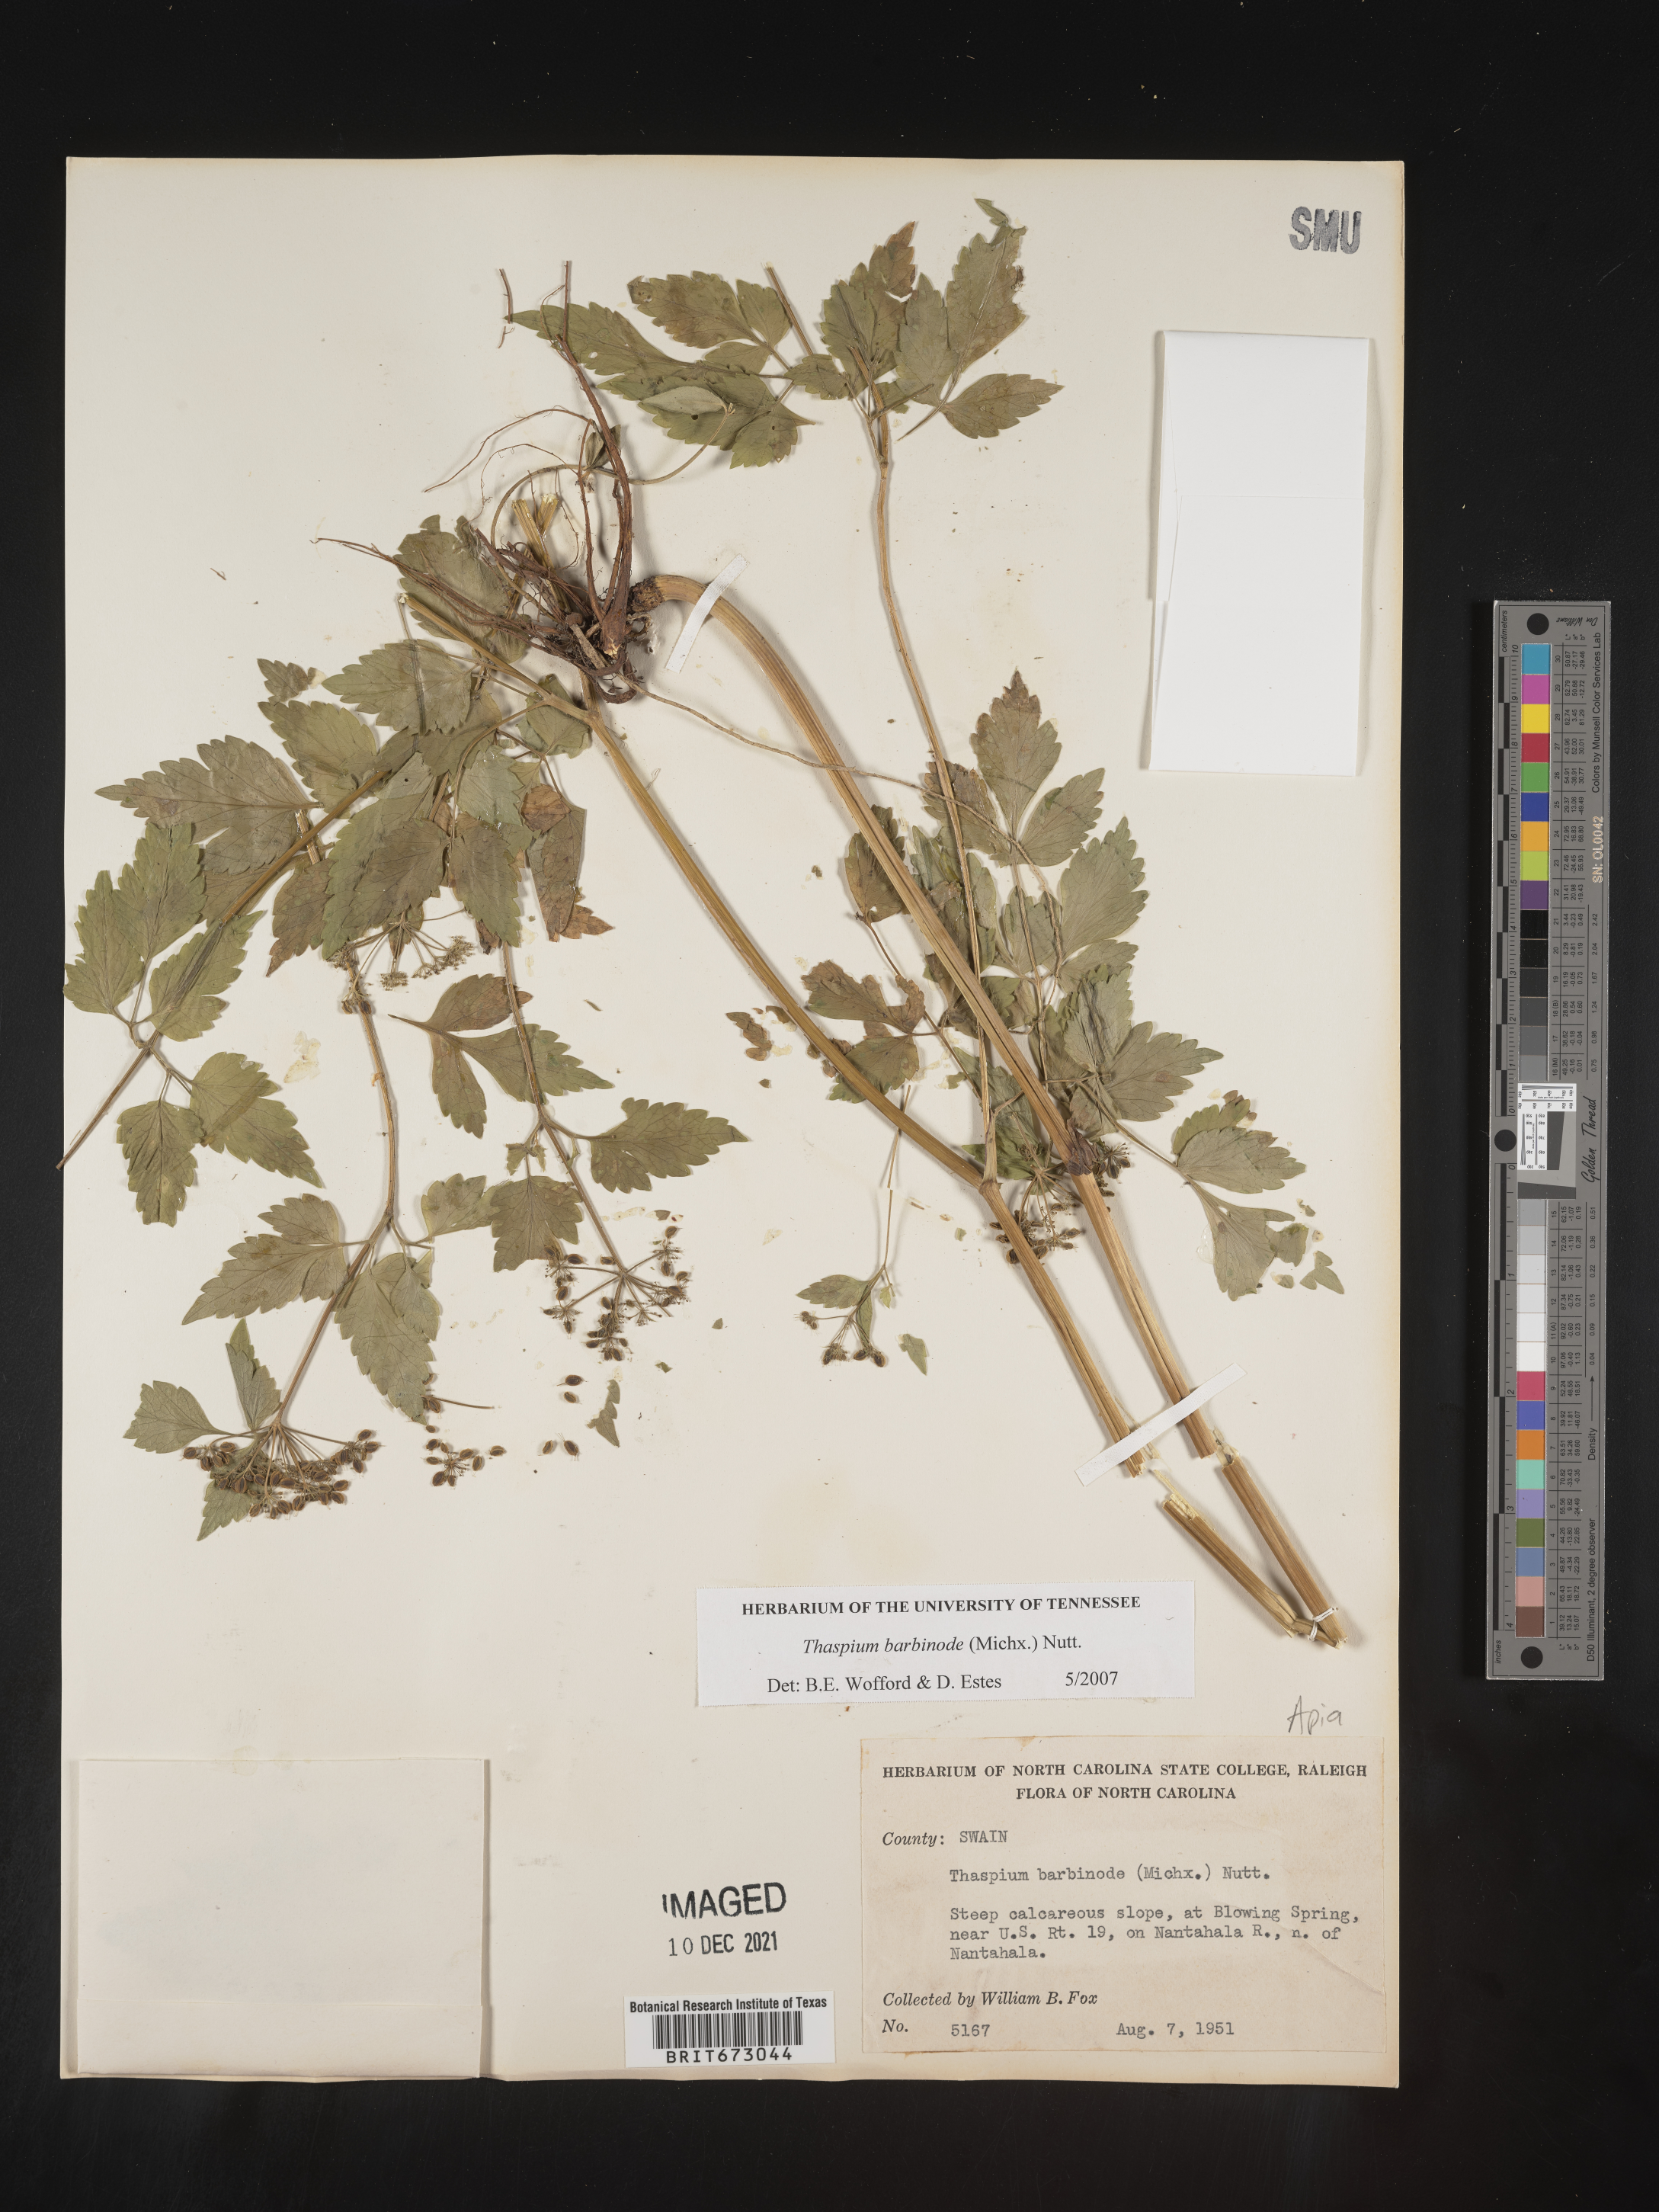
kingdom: Plantae
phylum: Tracheophyta
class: Magnoliopsida
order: Apiales
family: Apiaceae
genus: Thaspium
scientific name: Thaspium barbinode
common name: Bearded meadow-parsnip
